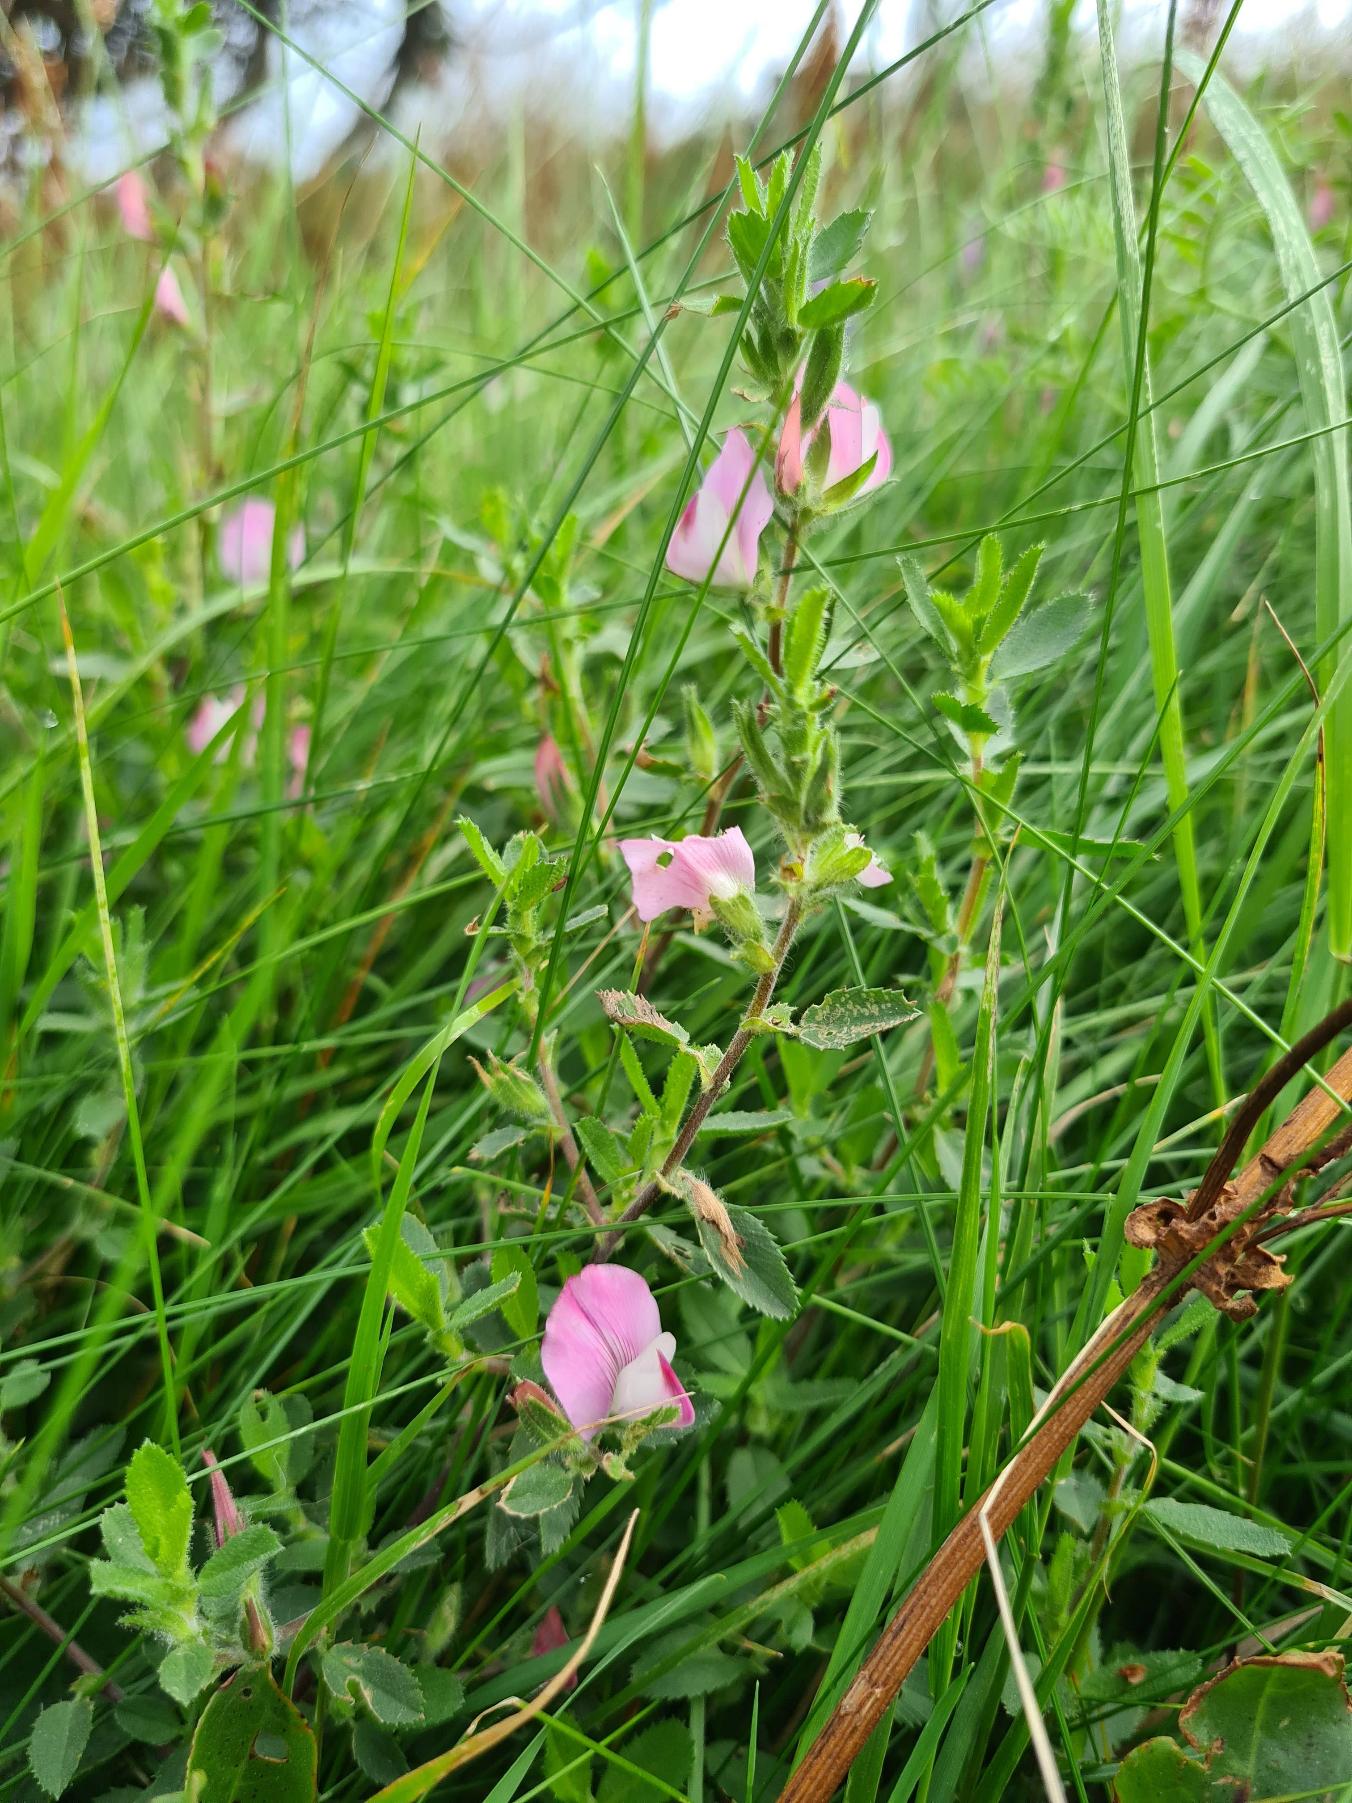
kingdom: Plantae
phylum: Tracheophyta
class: Magnoliopsida
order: Fabales
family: Fabaceae
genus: Ononis
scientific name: Ononis spinosa
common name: Mark-krageklo
